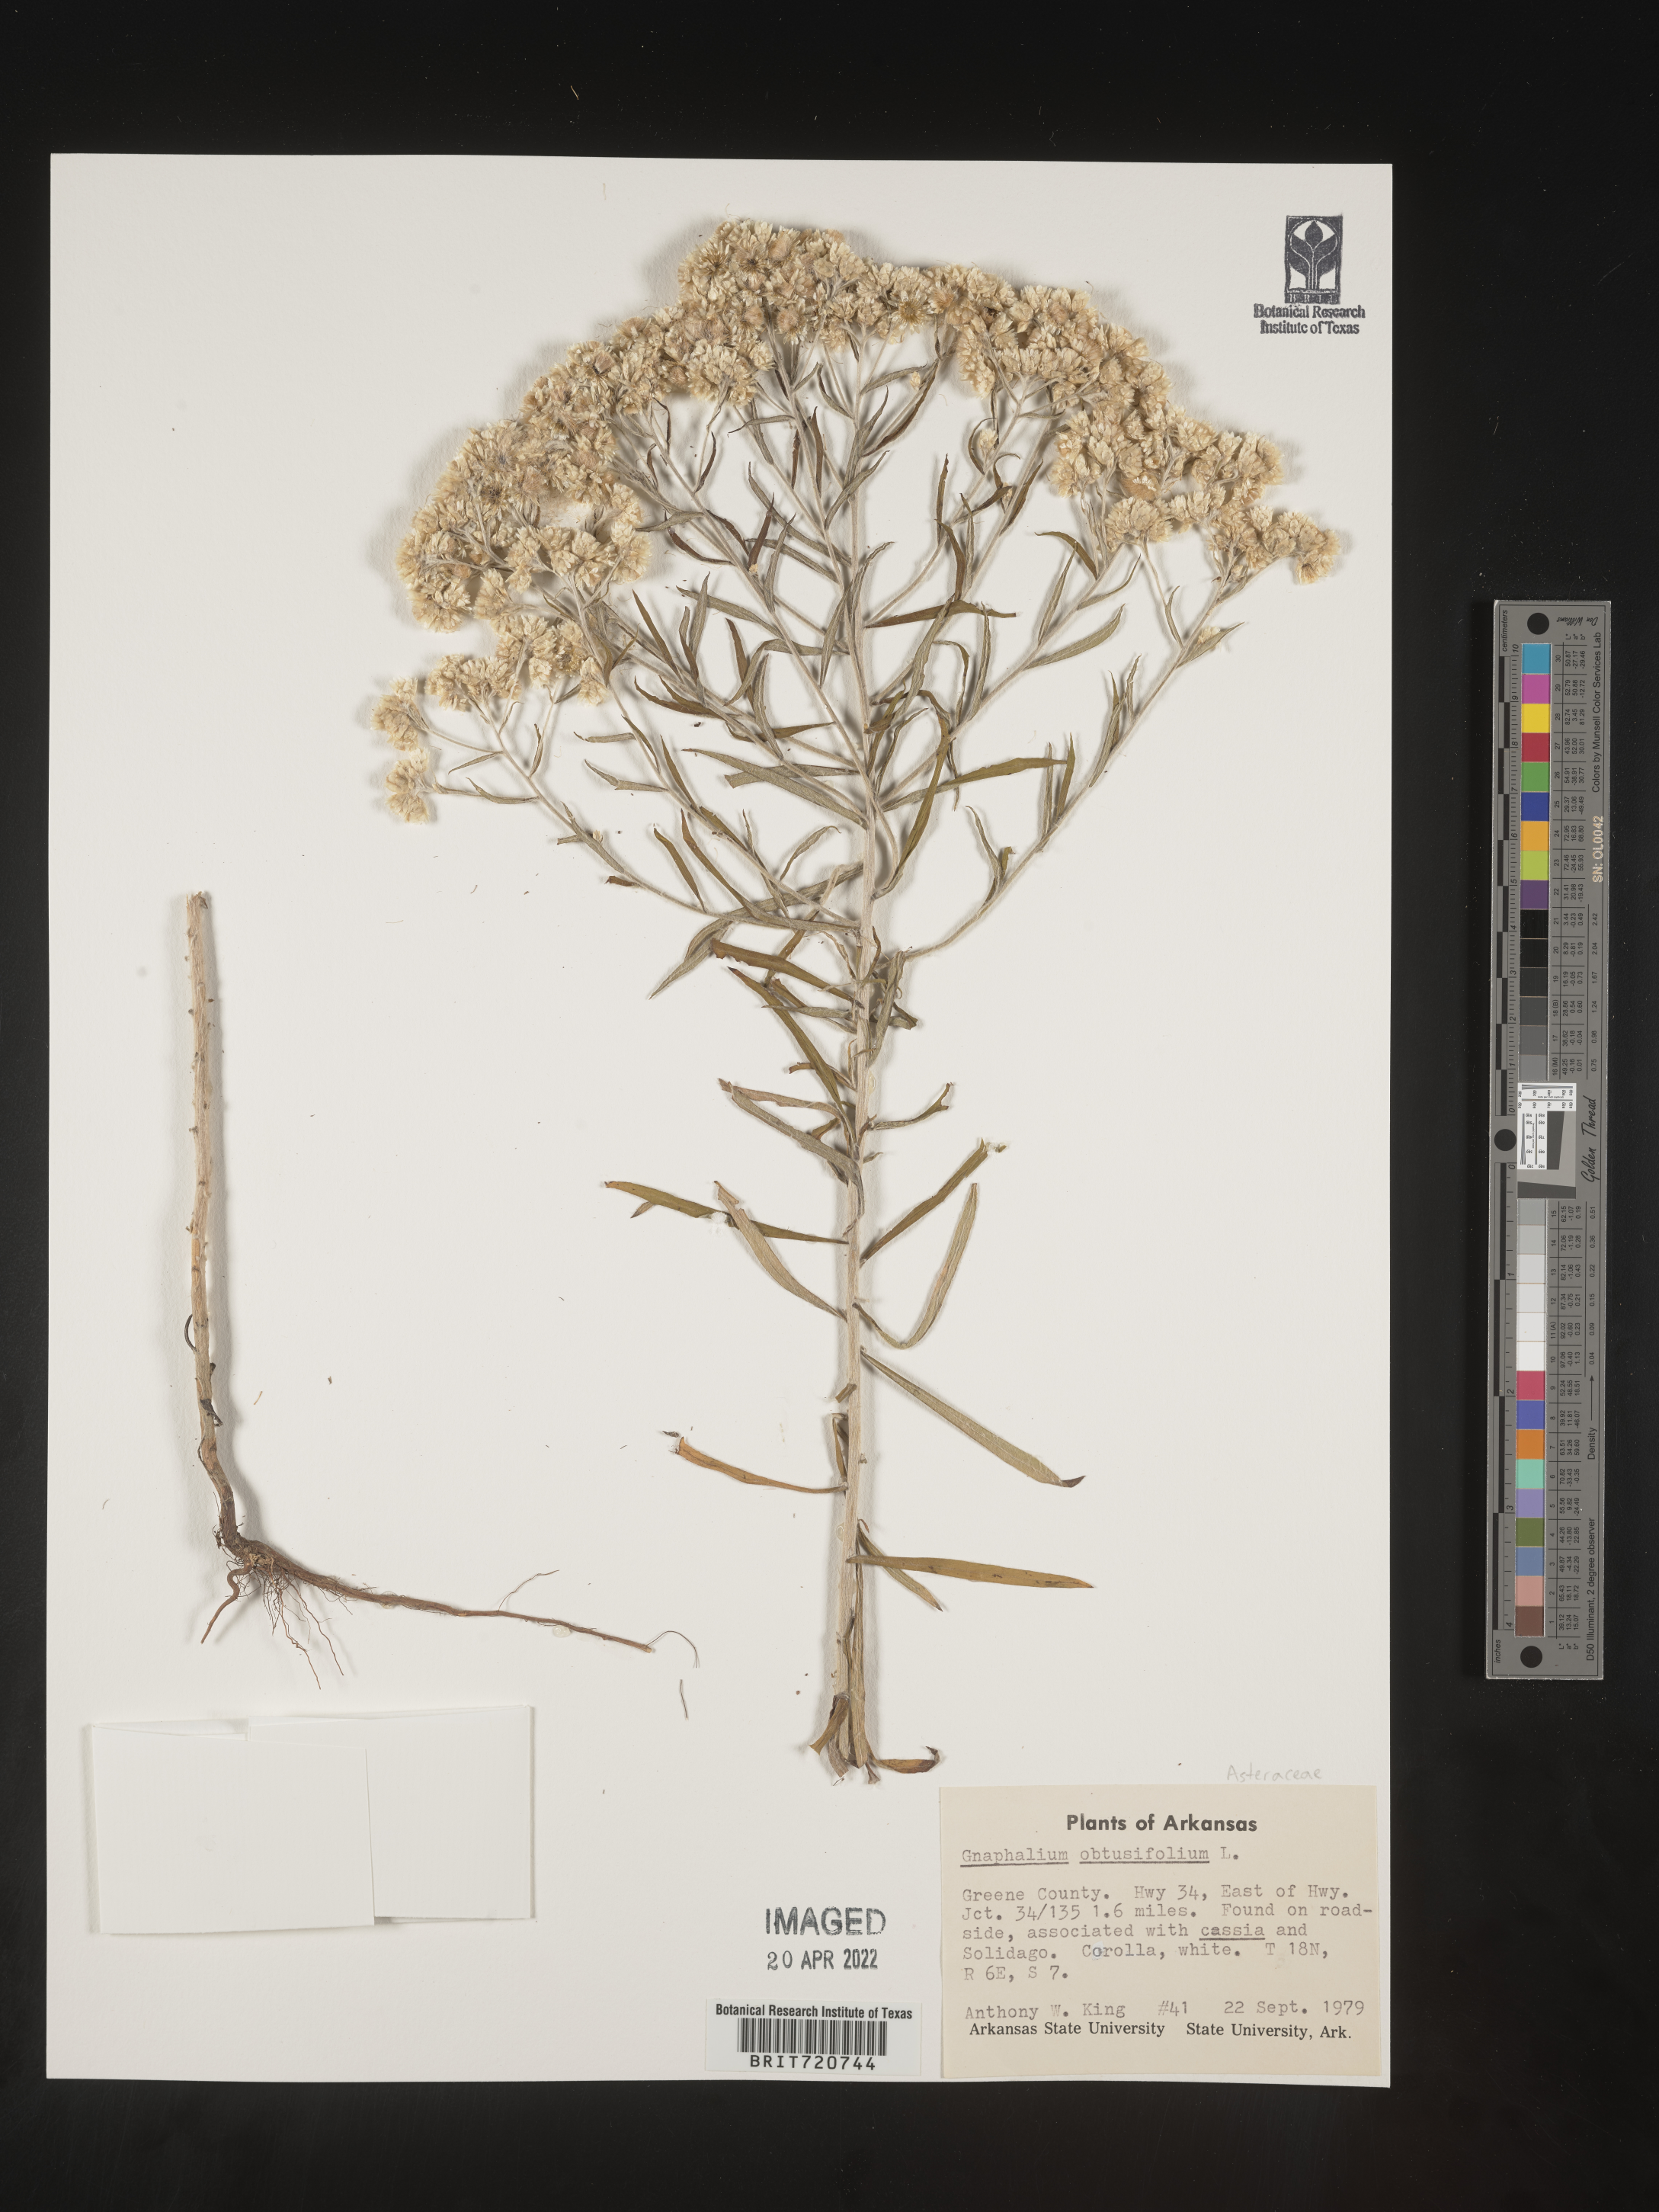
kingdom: Plantae
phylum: Tracheophyta
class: Magnoliopsida
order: Asterales
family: Asteraceae
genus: Gnaphalium
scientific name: Gnaphalium
